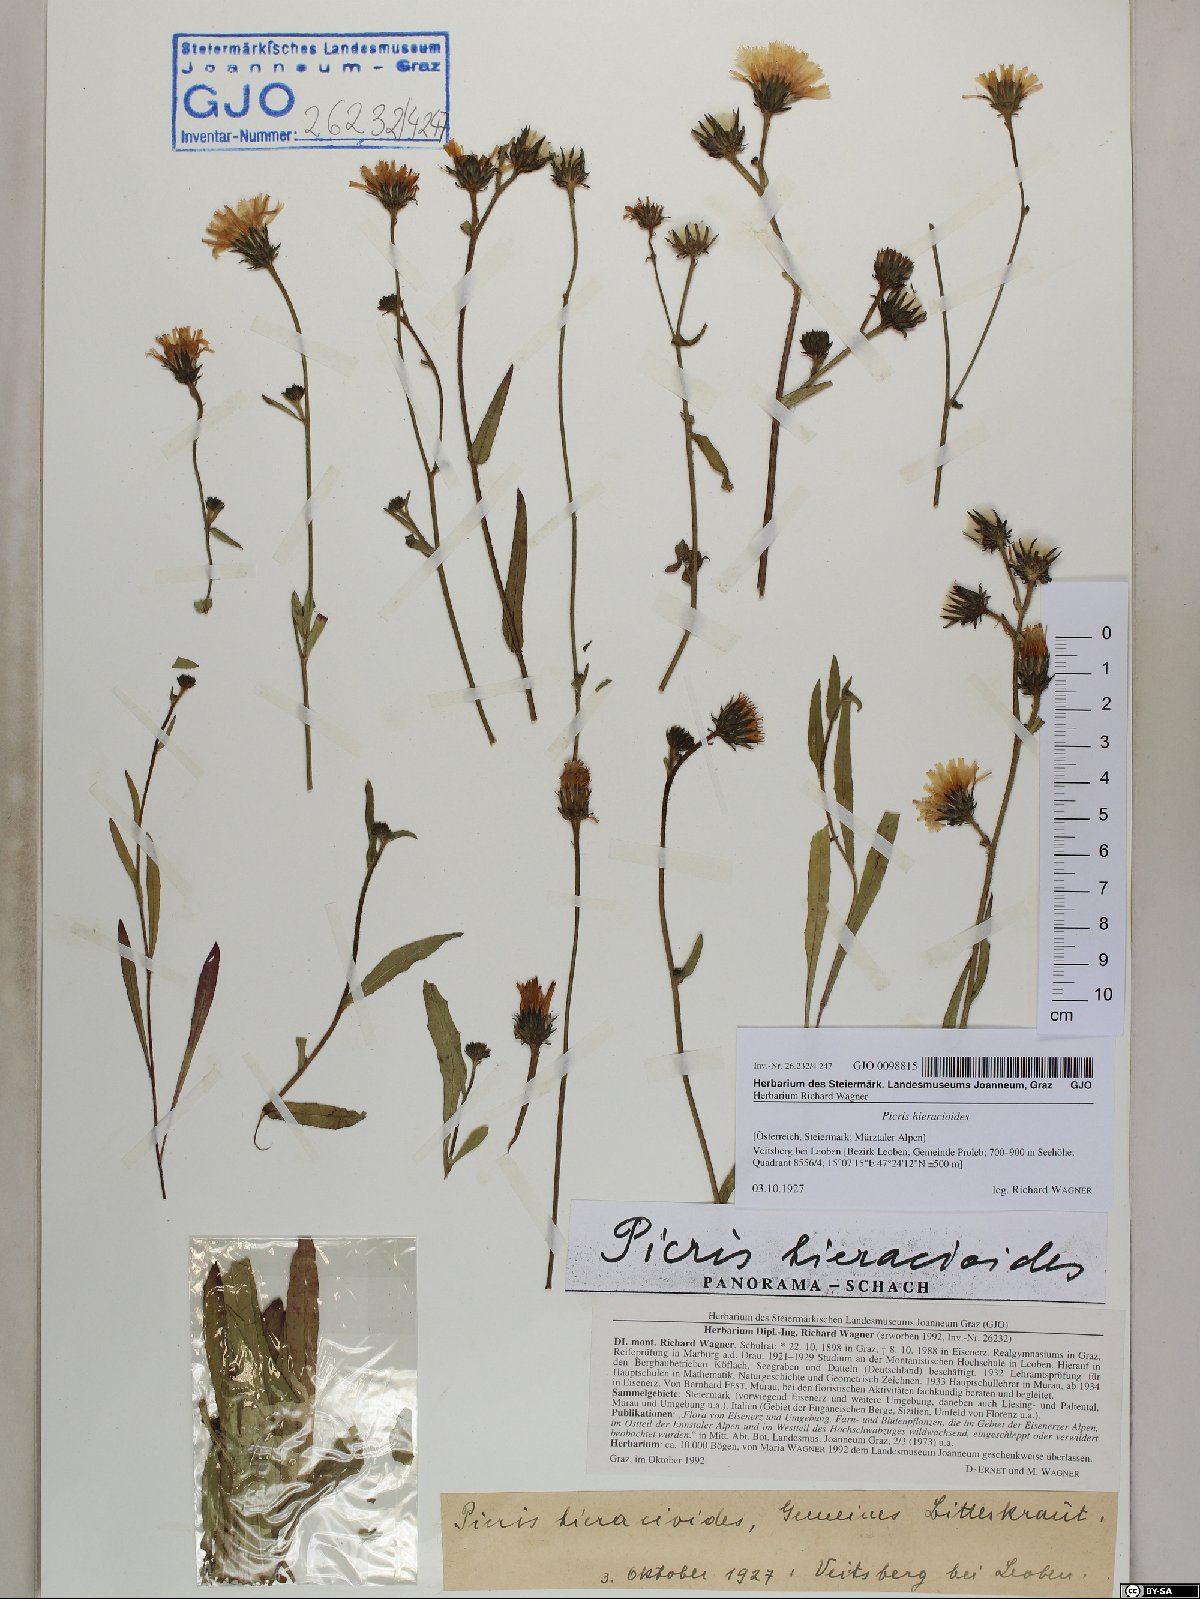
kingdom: Plantae
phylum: Tracheophyta
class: Magnoliopsida
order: Asterales
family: Asteraceae
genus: Picris
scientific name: Picris hieracioides
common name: Hawkweed oxtongue
